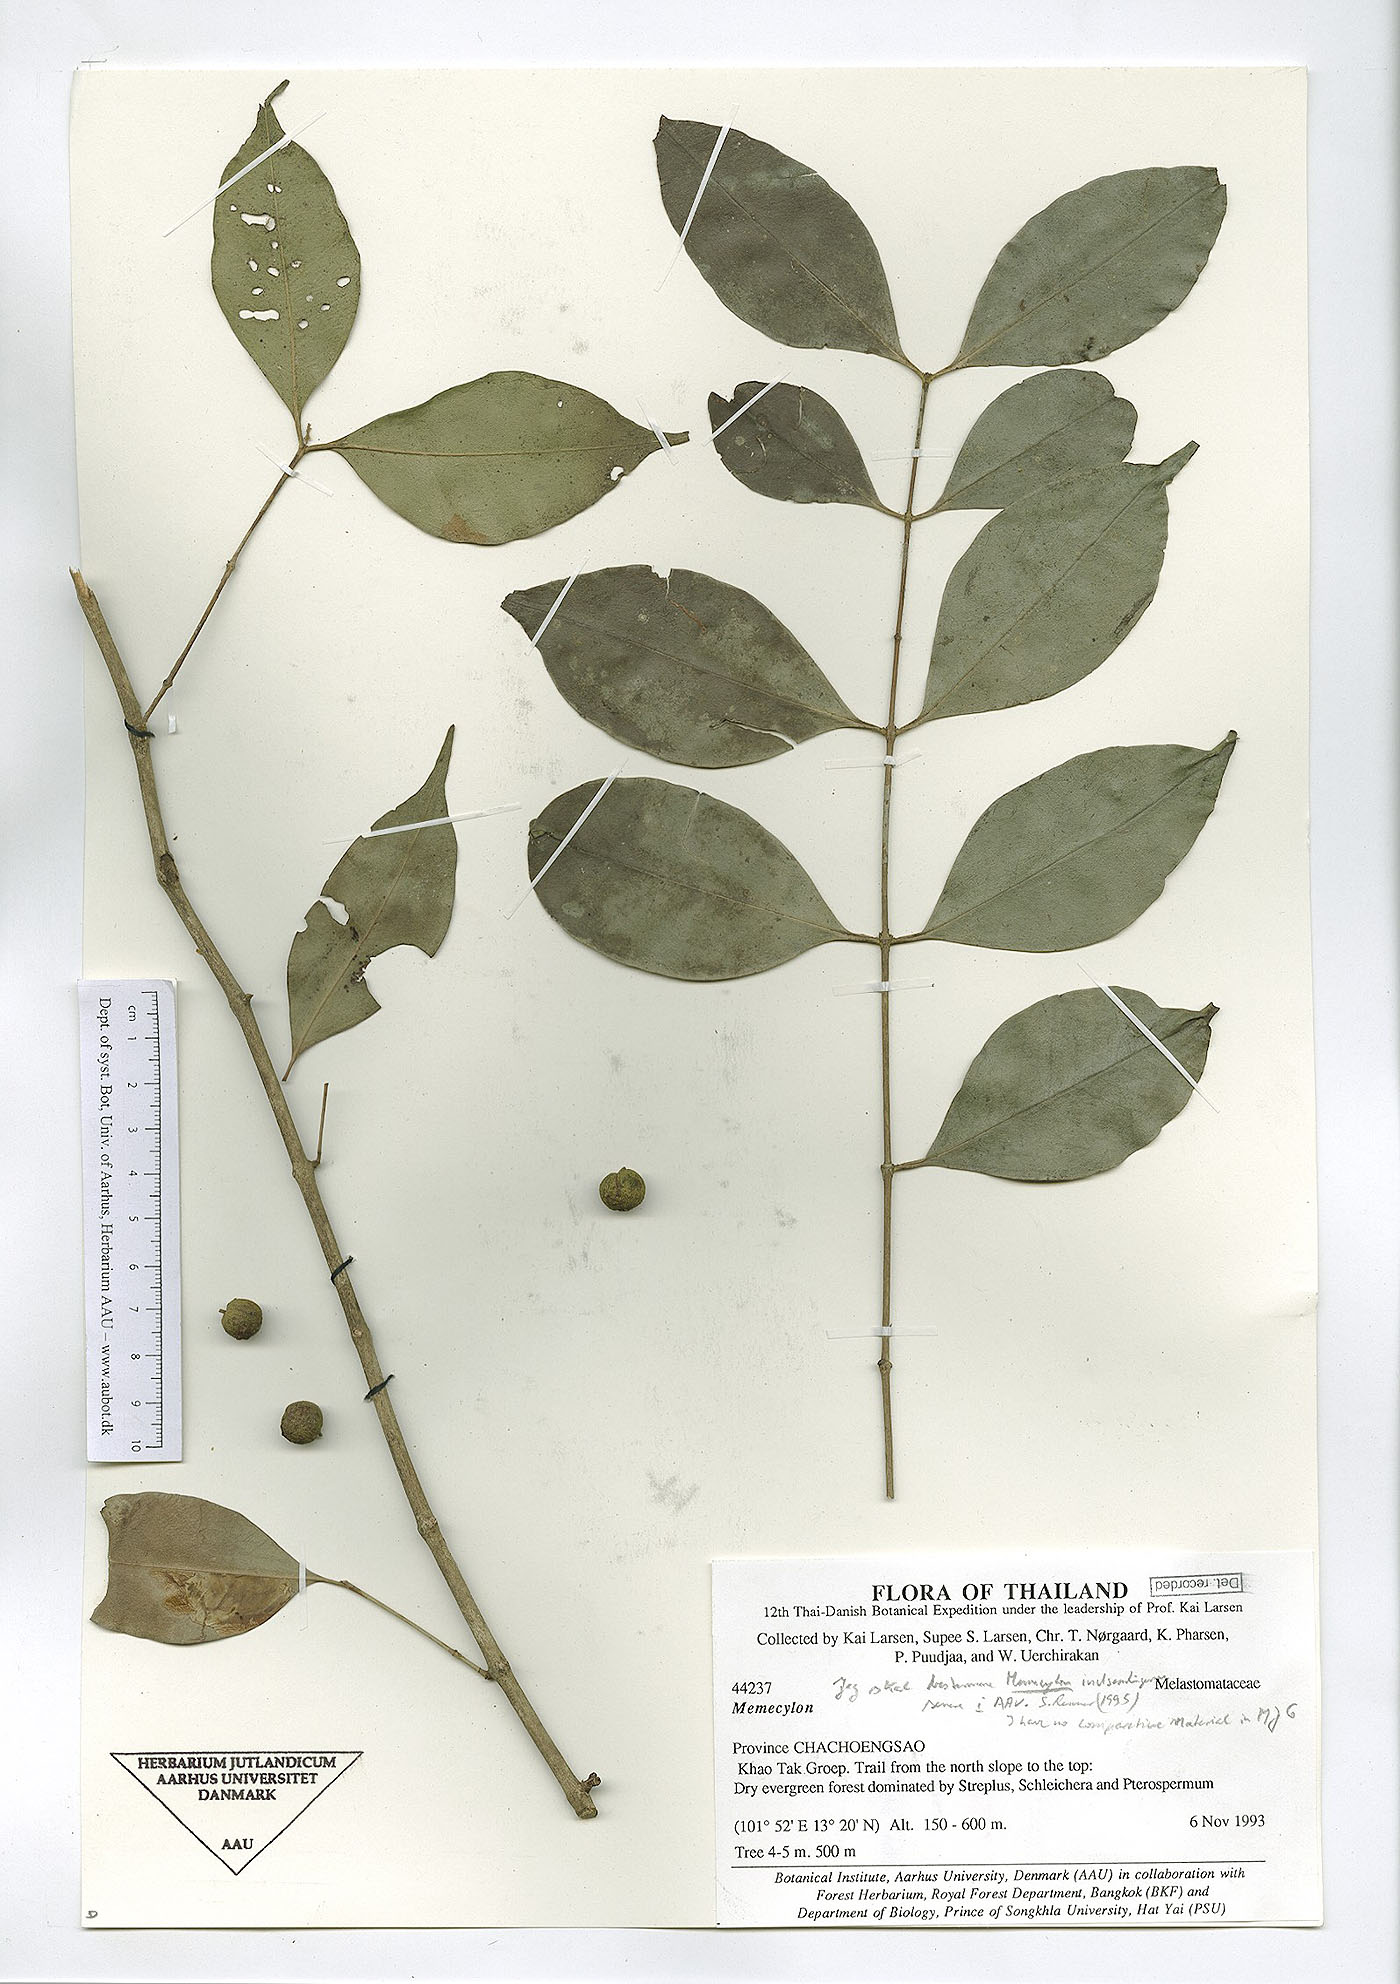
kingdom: Plantae
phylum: Tracheophyta
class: Magnoliopsida
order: Myrtales
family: Melastomataceae
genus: Memecylon
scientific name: Memecylon lilacinum
